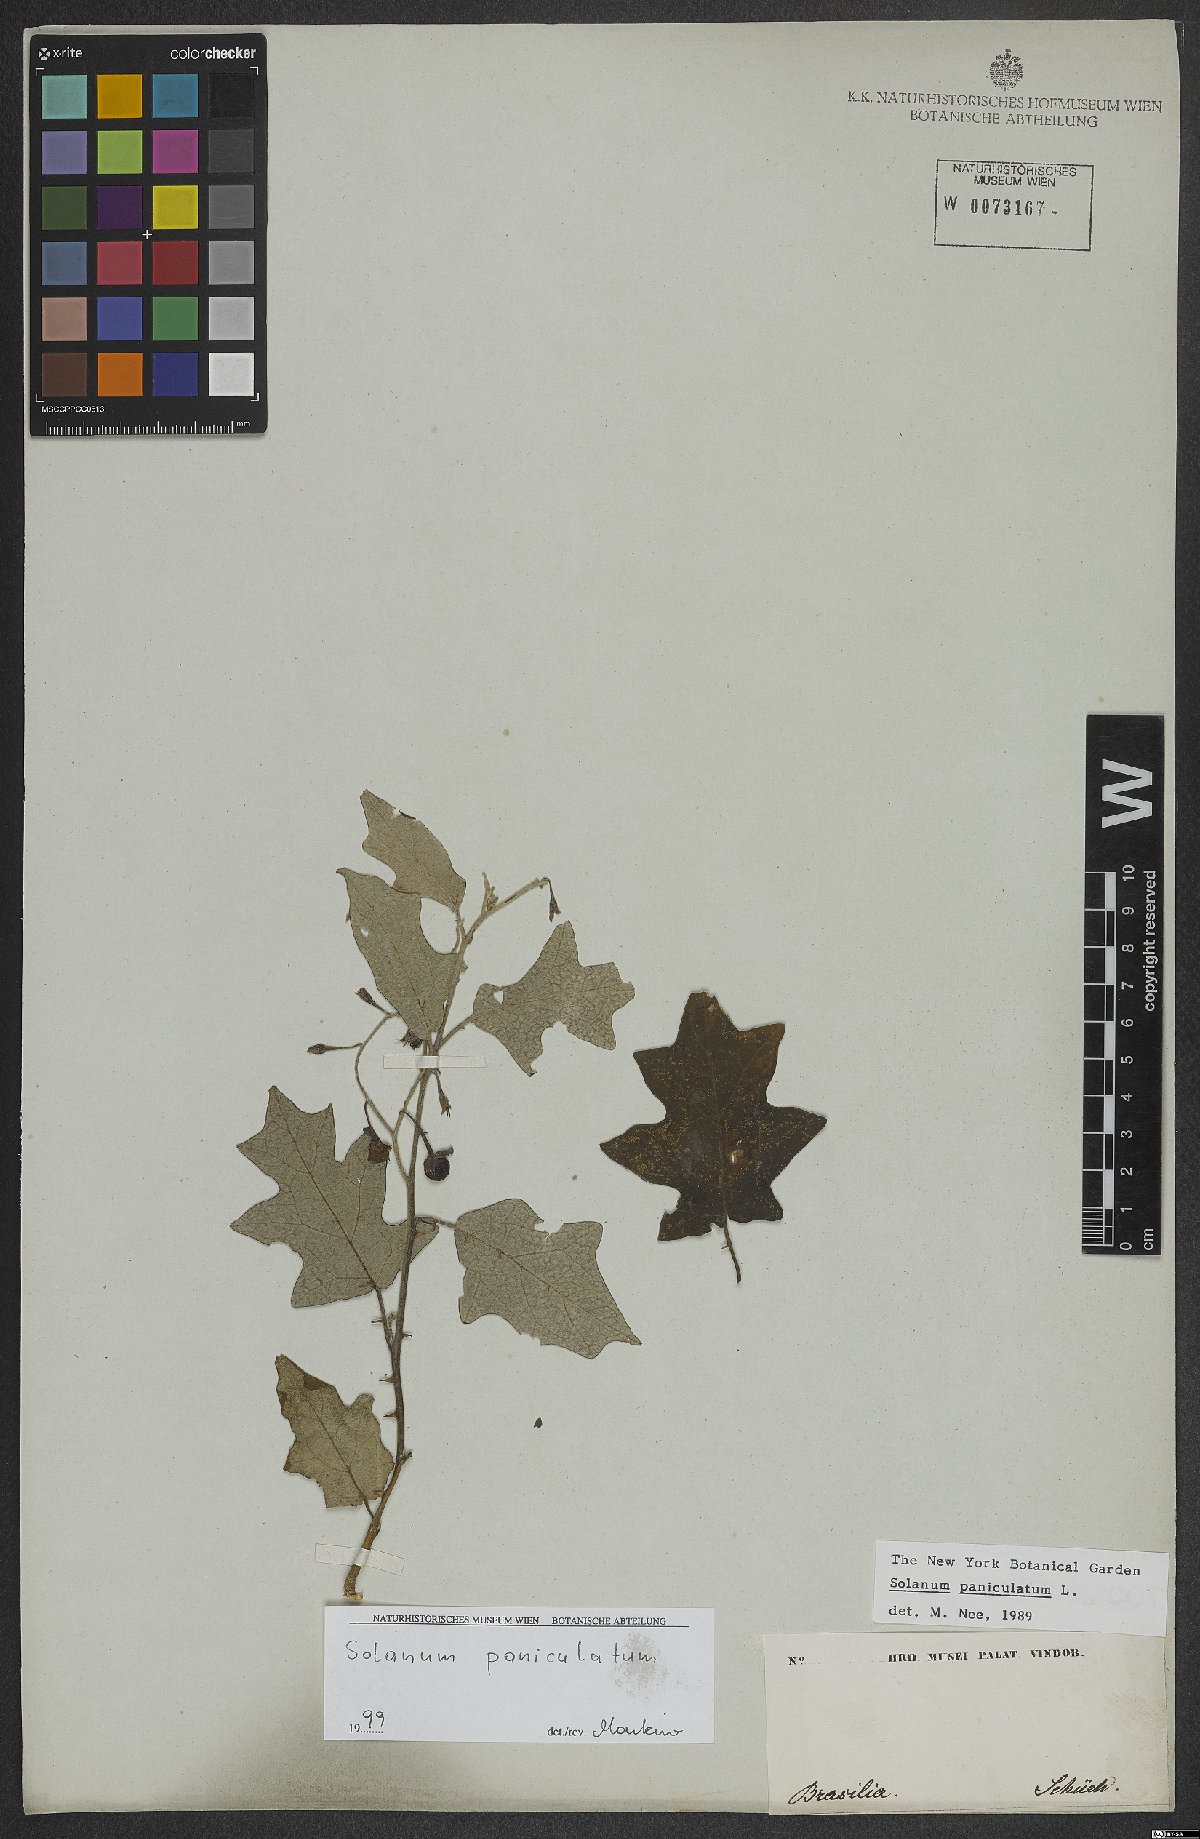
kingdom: Plantae
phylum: Tracheophyta
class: Magnoliopsida
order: Solanales
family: Solanaceae
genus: Solanum
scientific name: Solanum paniculatum
